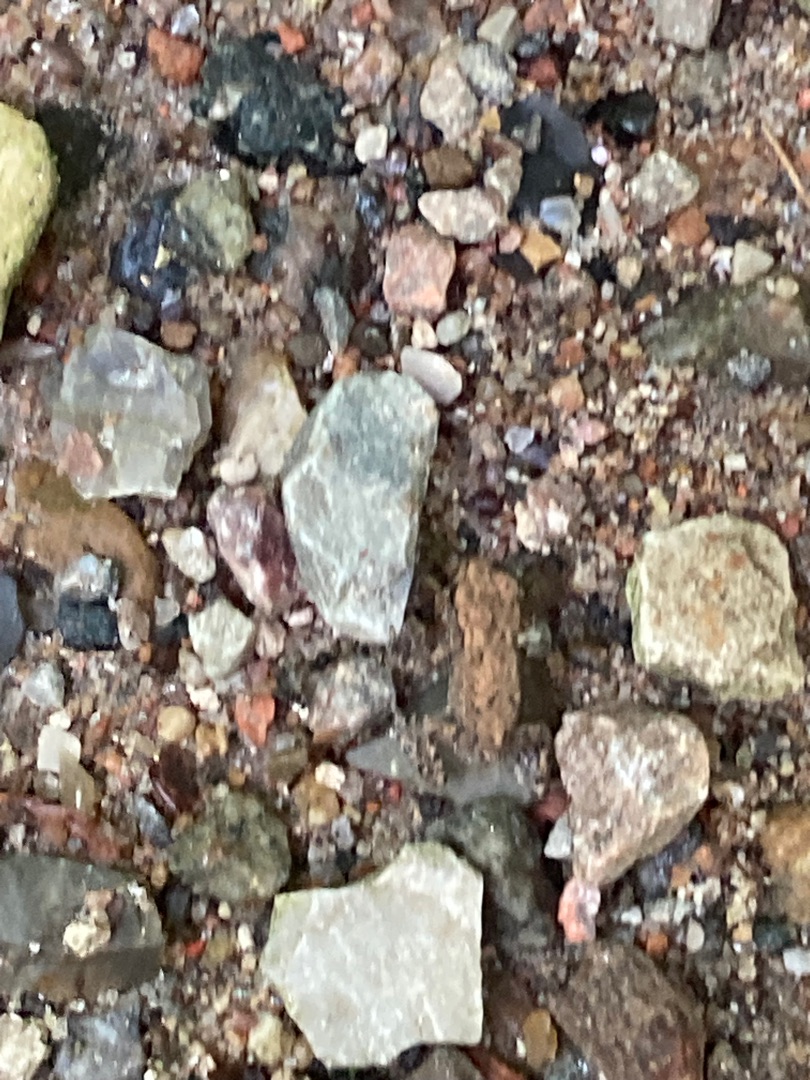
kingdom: Animalia
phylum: Chordata
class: Amphibia
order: Anura
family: Bufonidae
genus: Bufo
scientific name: Bufo bufo
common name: Skrubtudse
